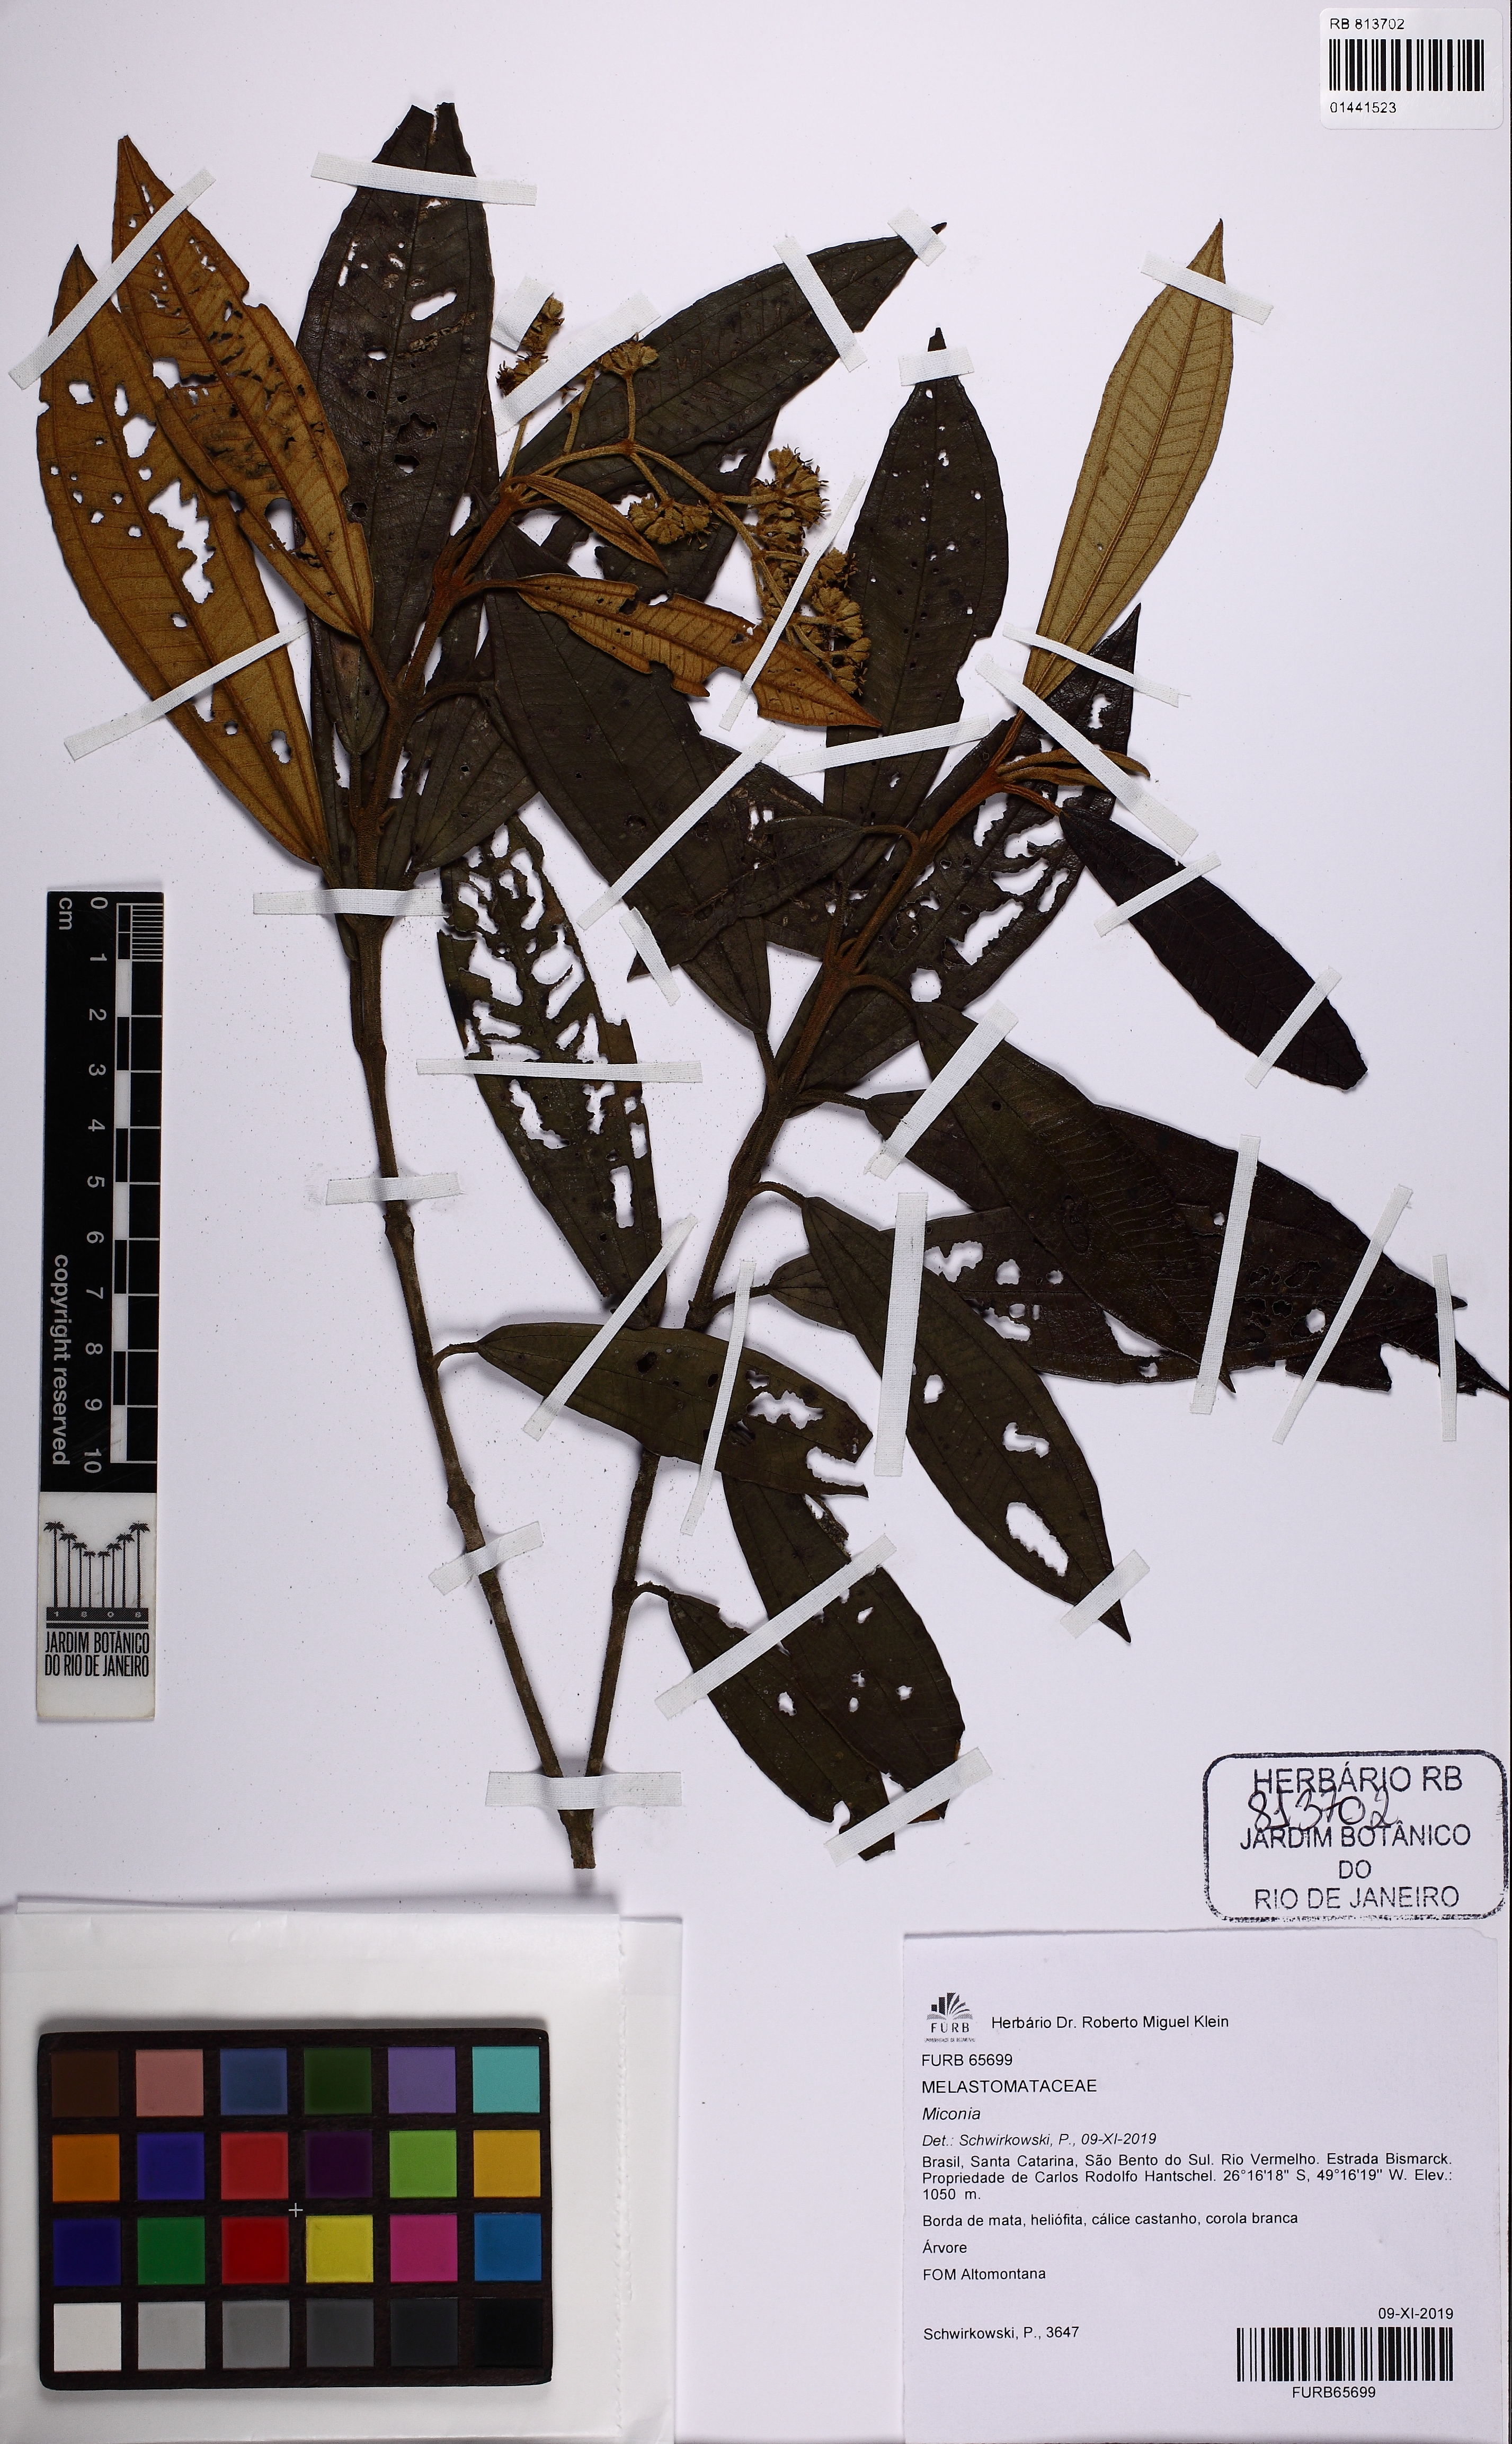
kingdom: Plantae
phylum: Tracheophyta
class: Magnoliopsida
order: Myrtales
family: Melastomataceae
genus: Miconia
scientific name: Miconia
